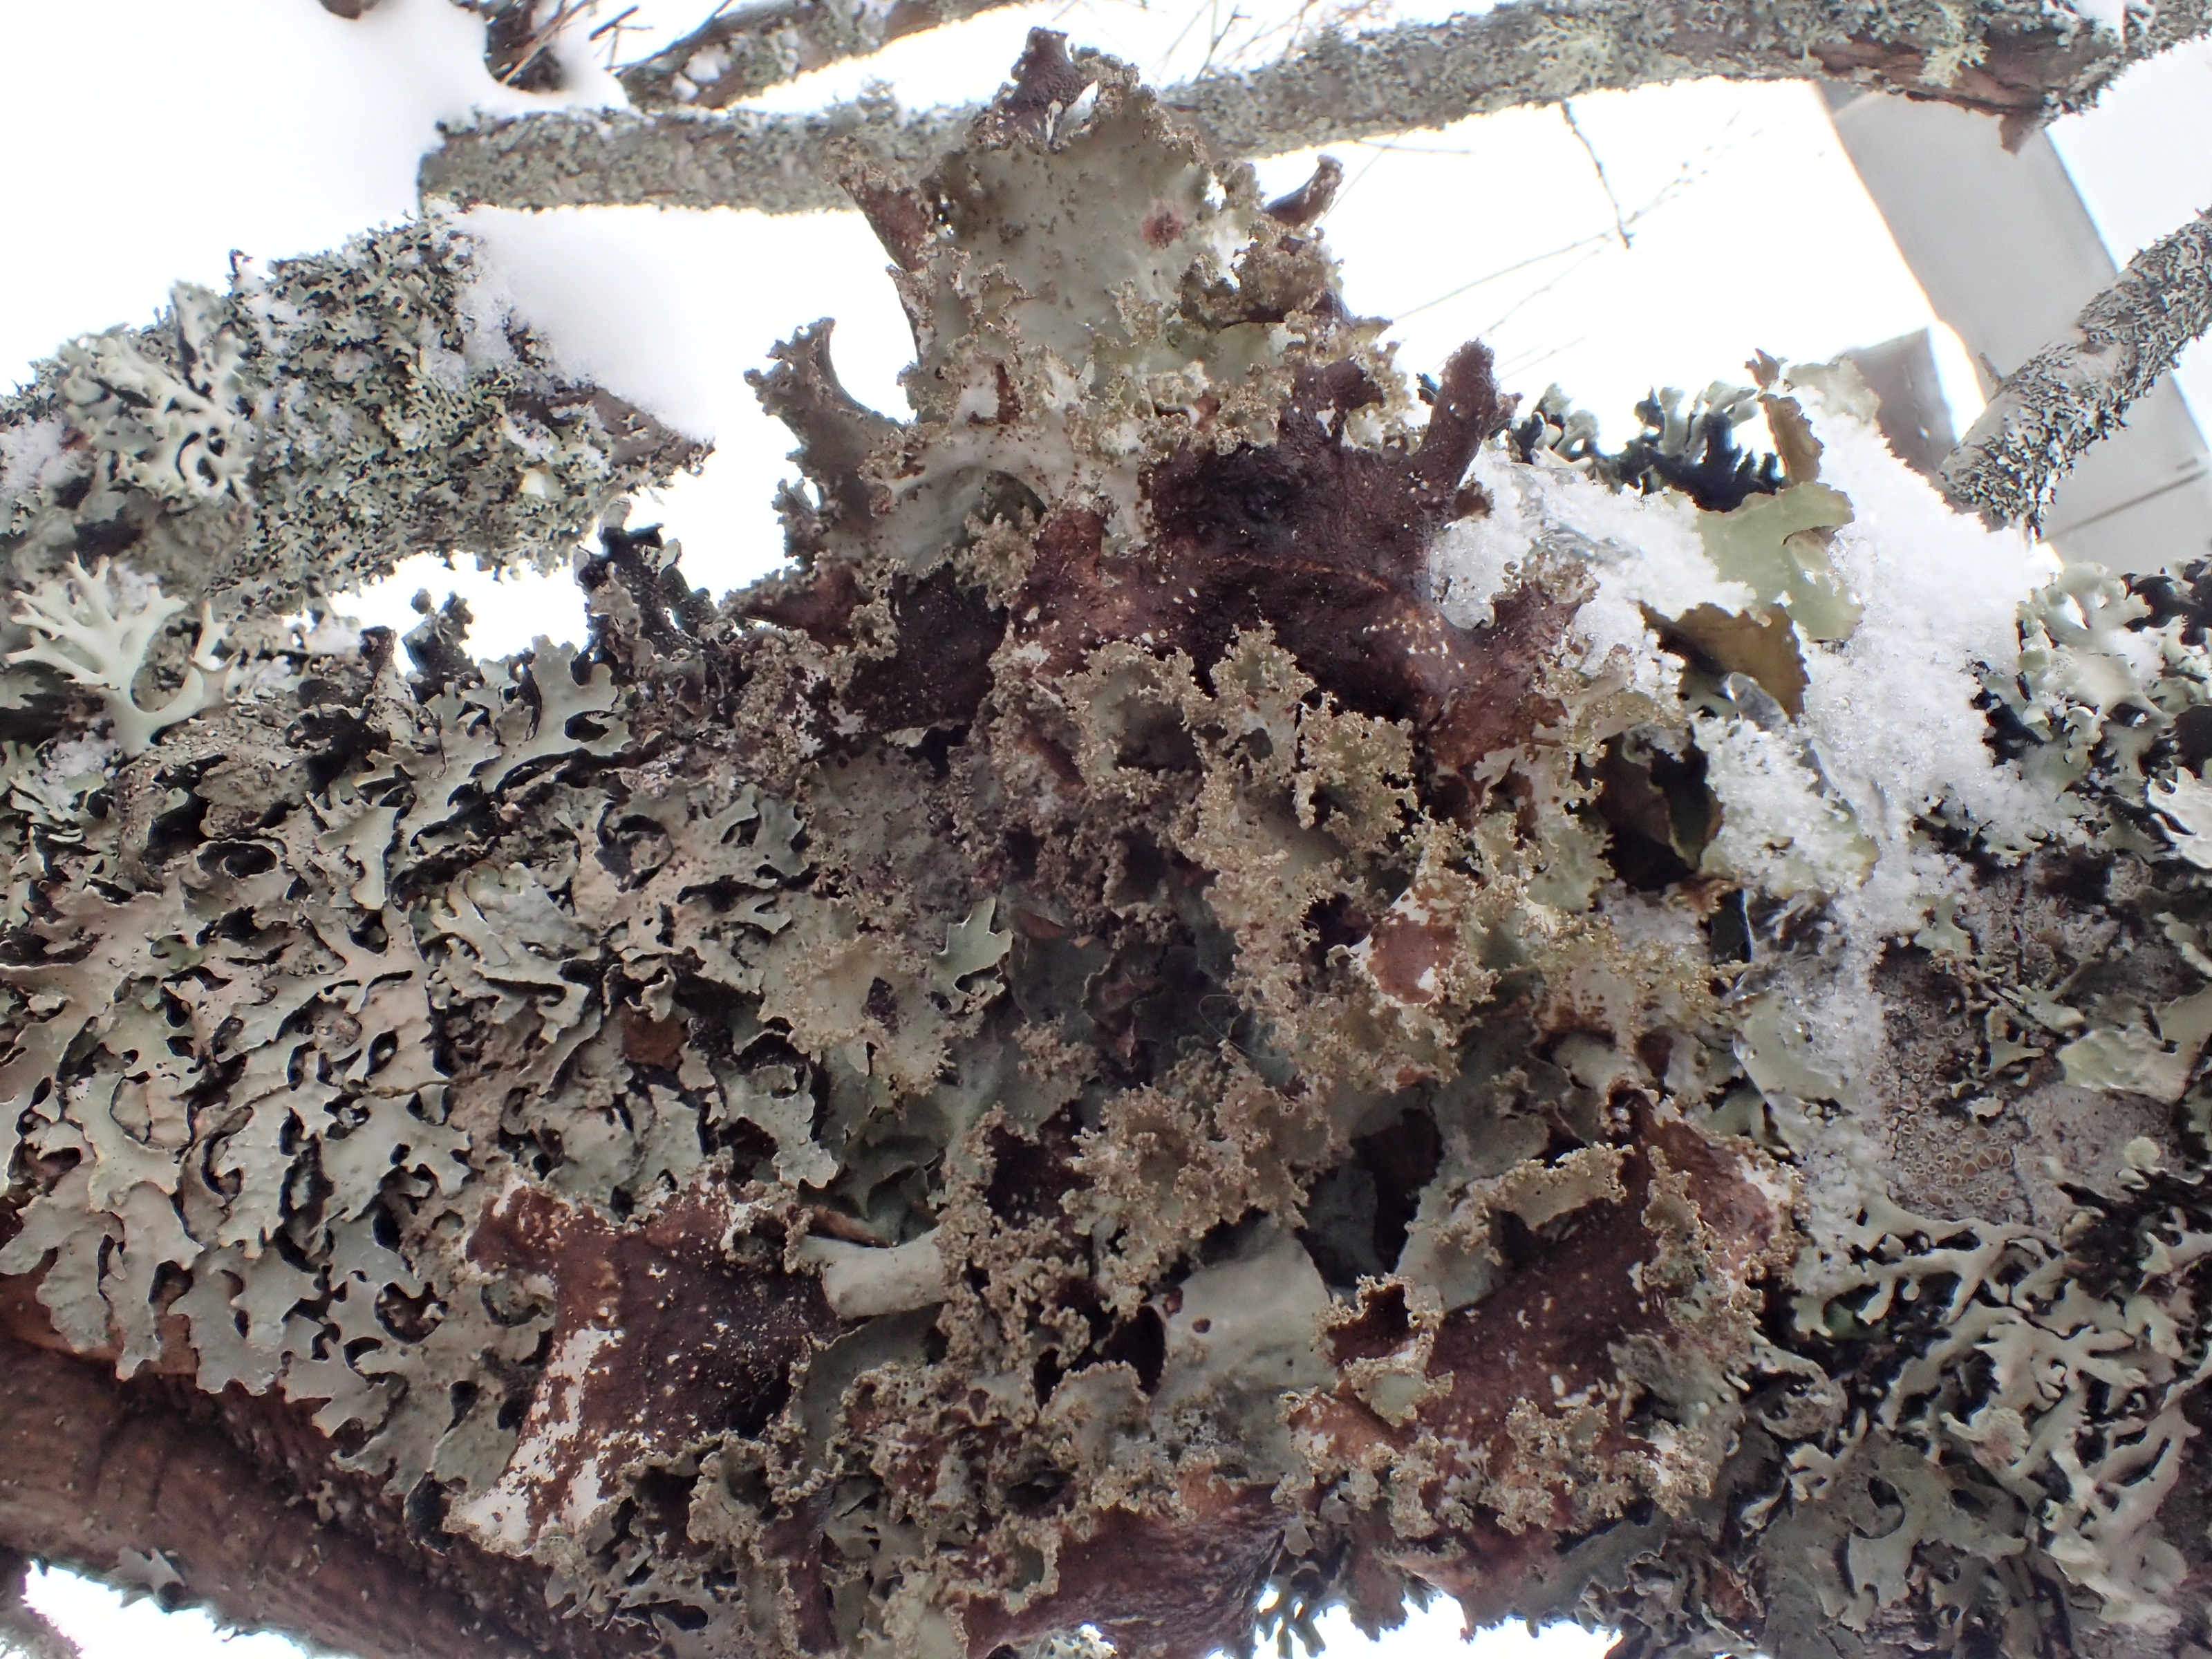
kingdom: Fungi
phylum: Ascomycota
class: Lecanoromycetes
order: Lecanorales
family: Parmeliaceae
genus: Evernia
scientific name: Evernia prunastri
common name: Oak moss
